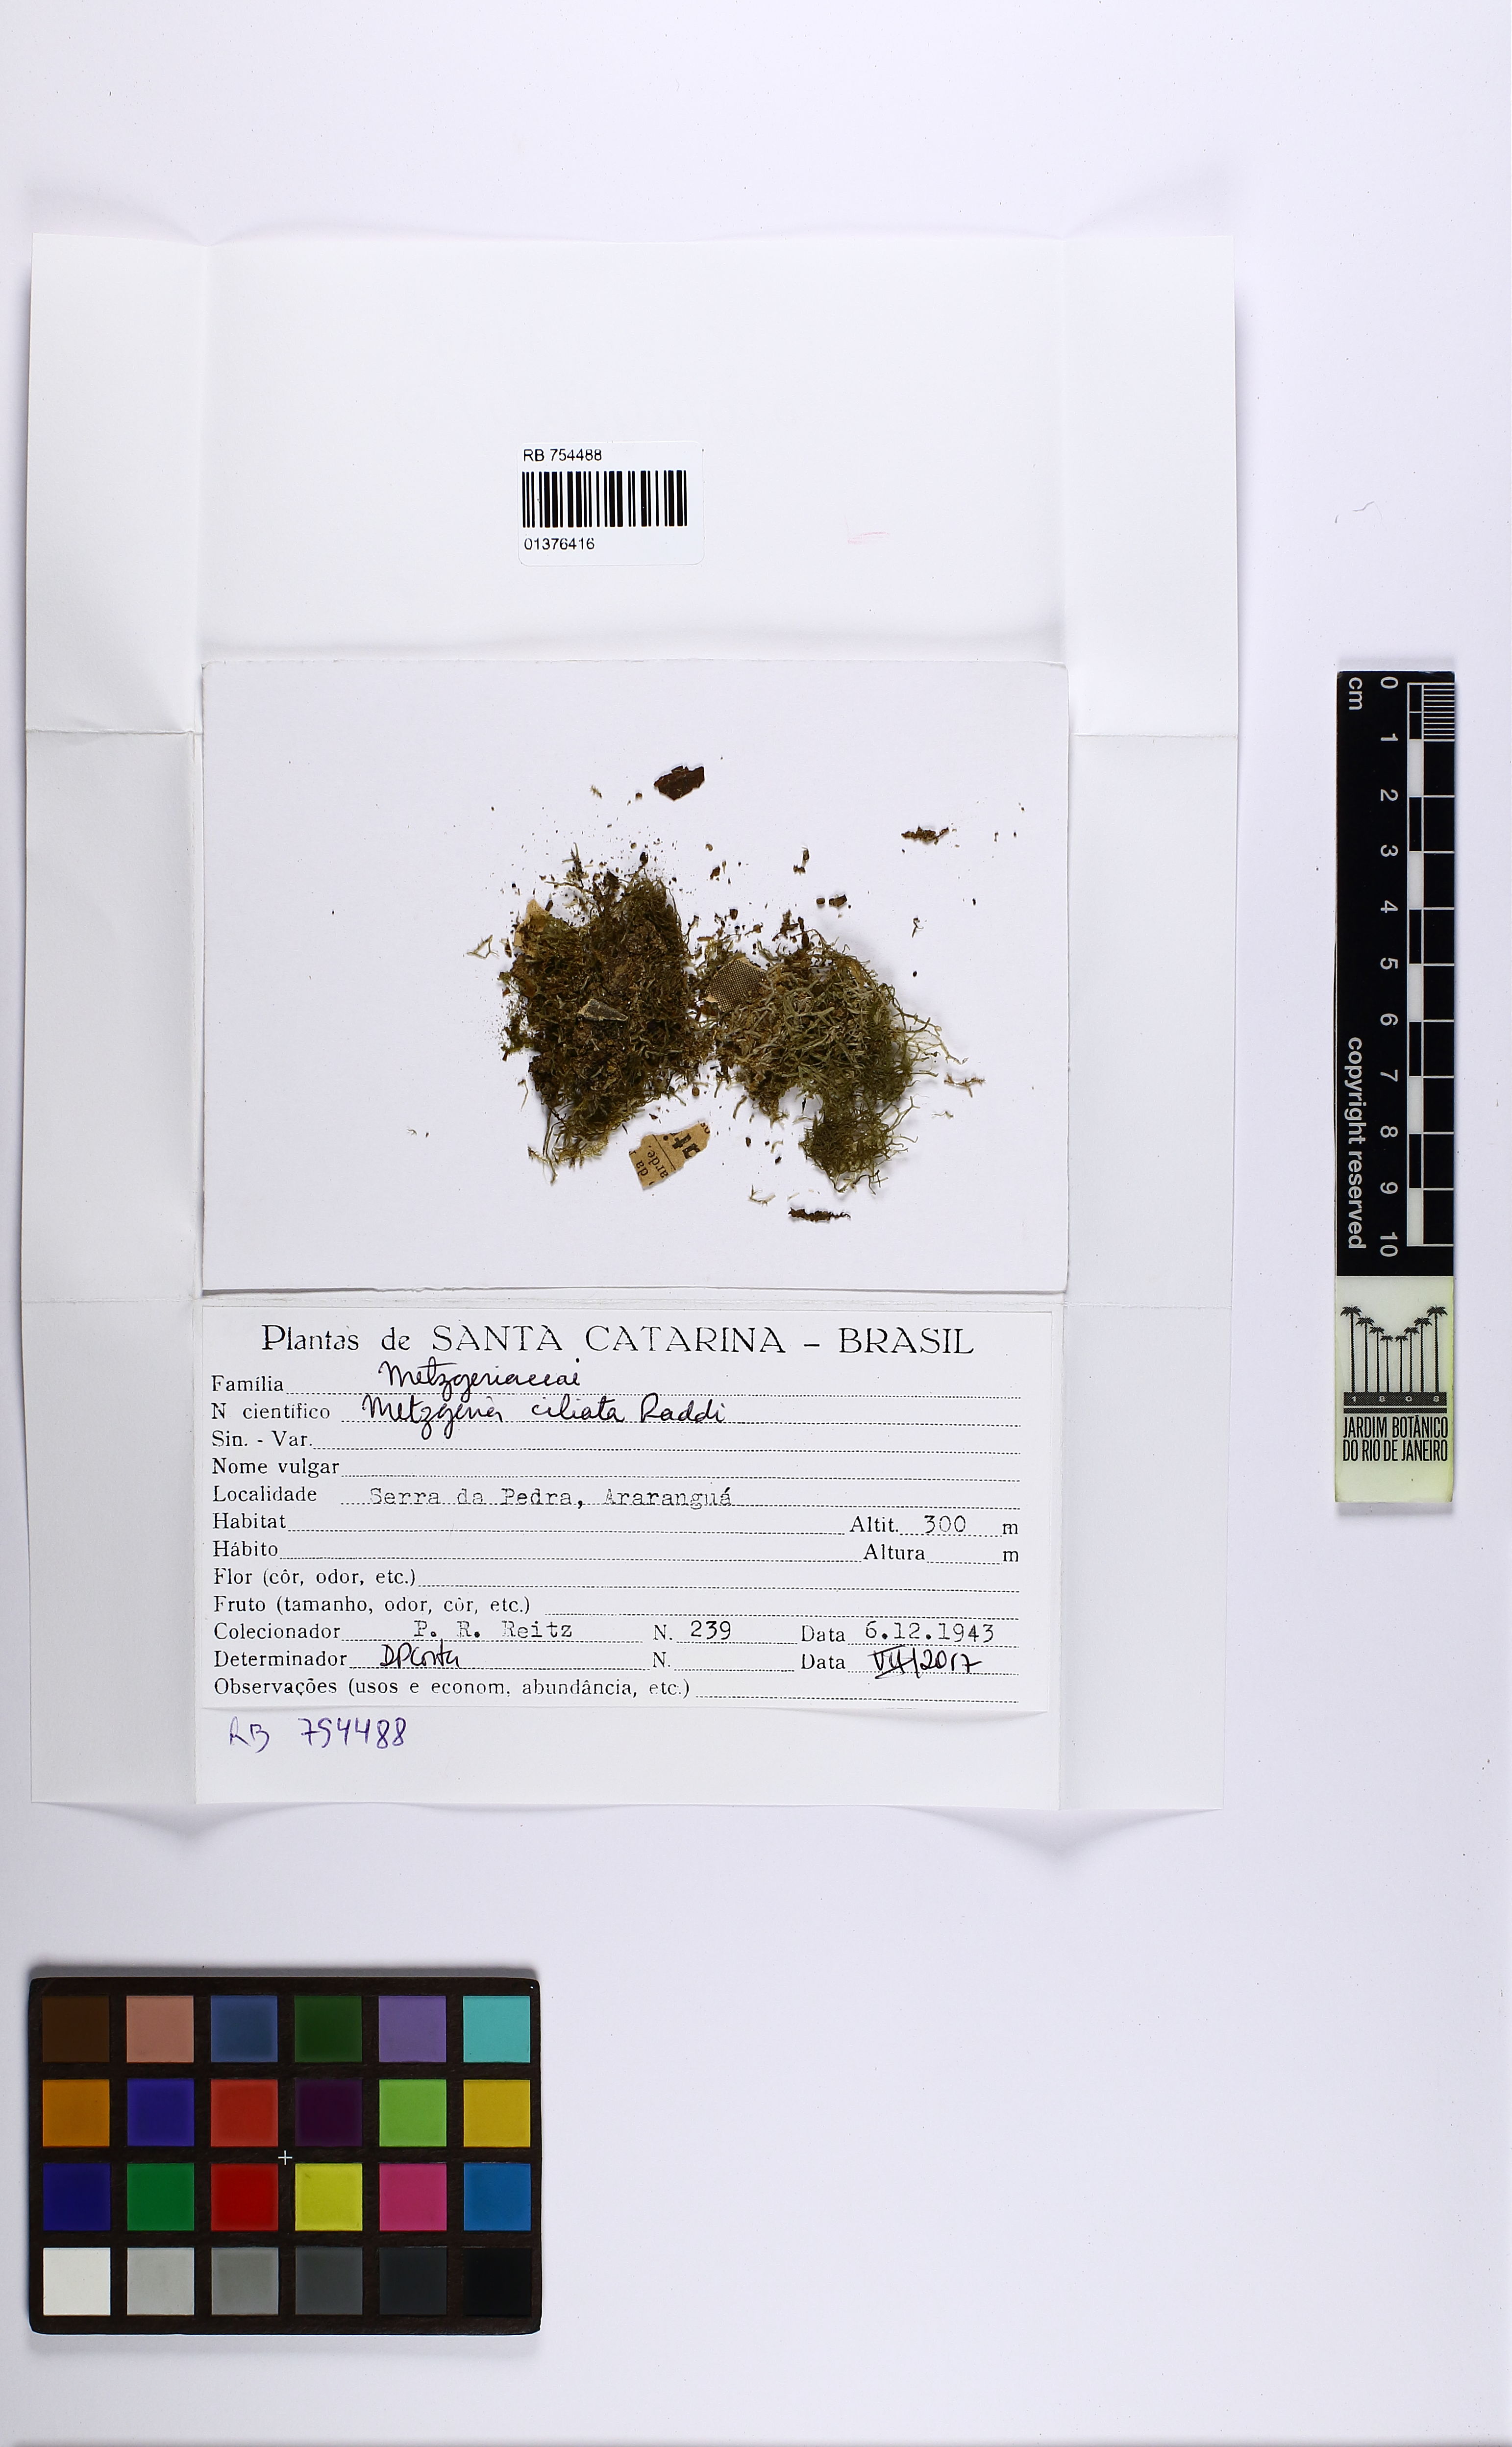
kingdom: Plantae
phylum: Marchantiophyta
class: Jungermanniopsida
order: Metzgeriales
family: Metzgeriaceae
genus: Metzgeria
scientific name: Metzgeria ciliata
